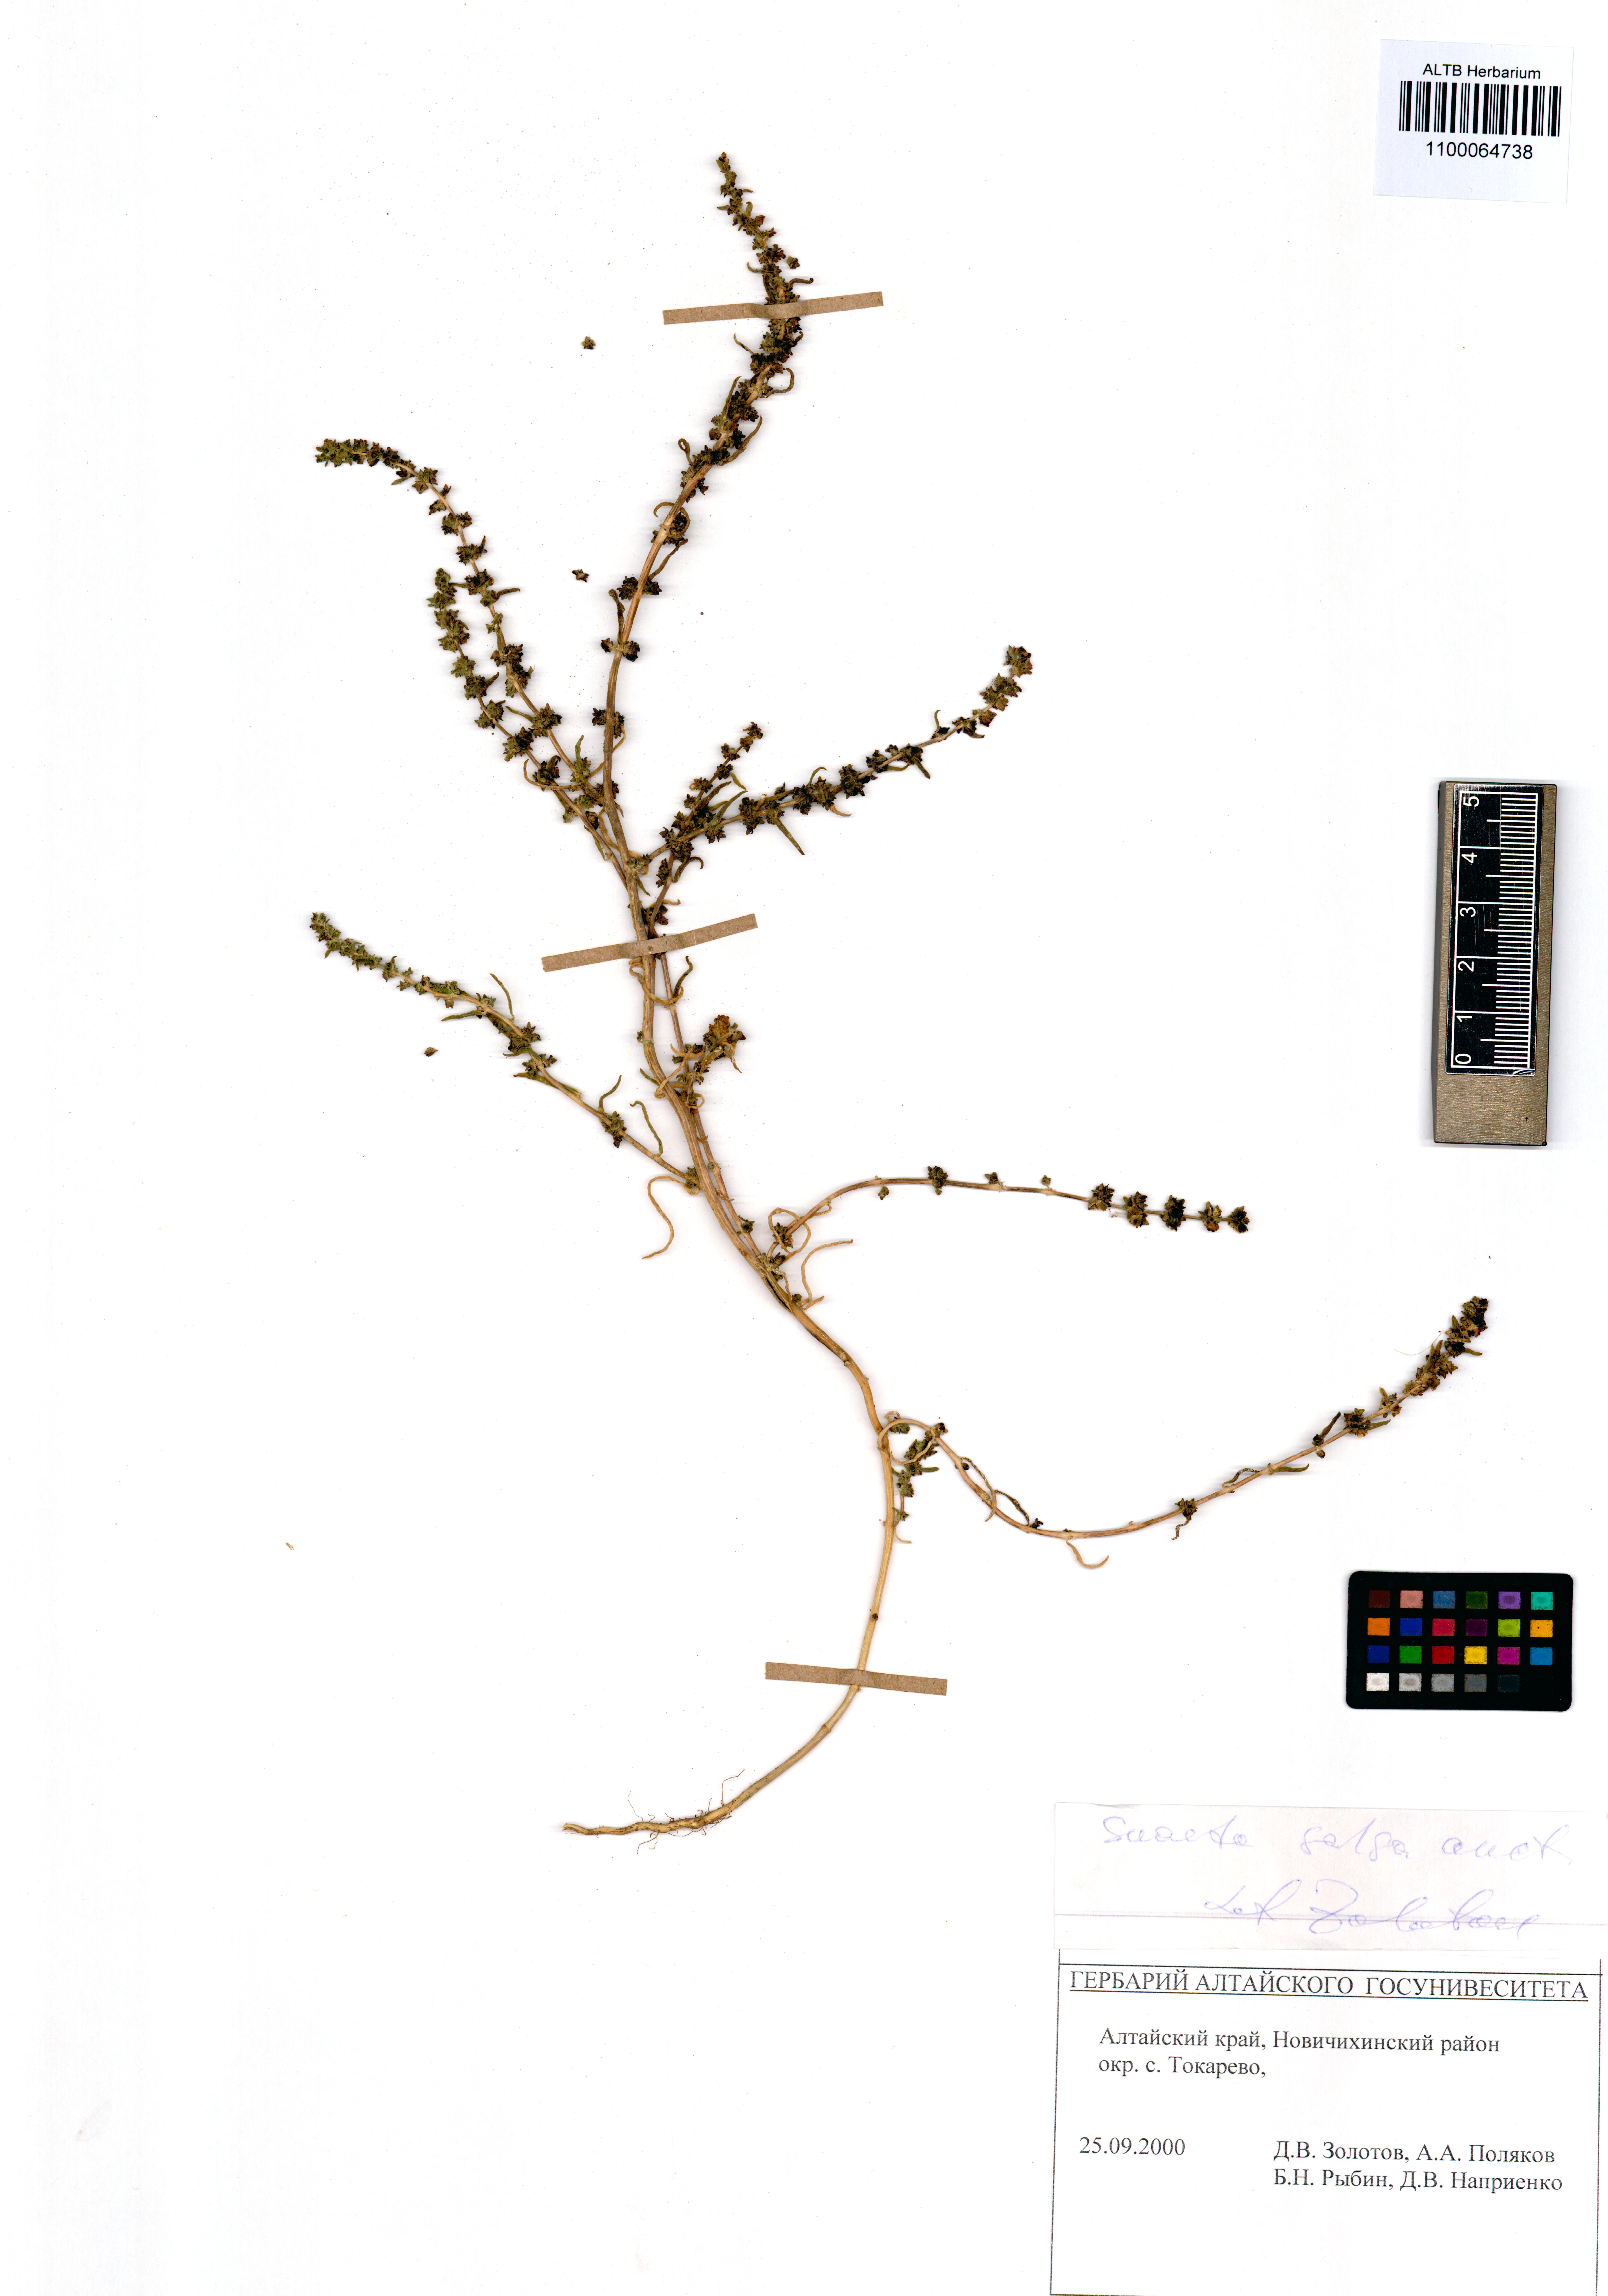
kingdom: Plantae
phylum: Tracheophyta
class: Magnoliopsida
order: Caryophyllales
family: Amaranthaceae
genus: Suaeda
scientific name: Suaeda salsa
